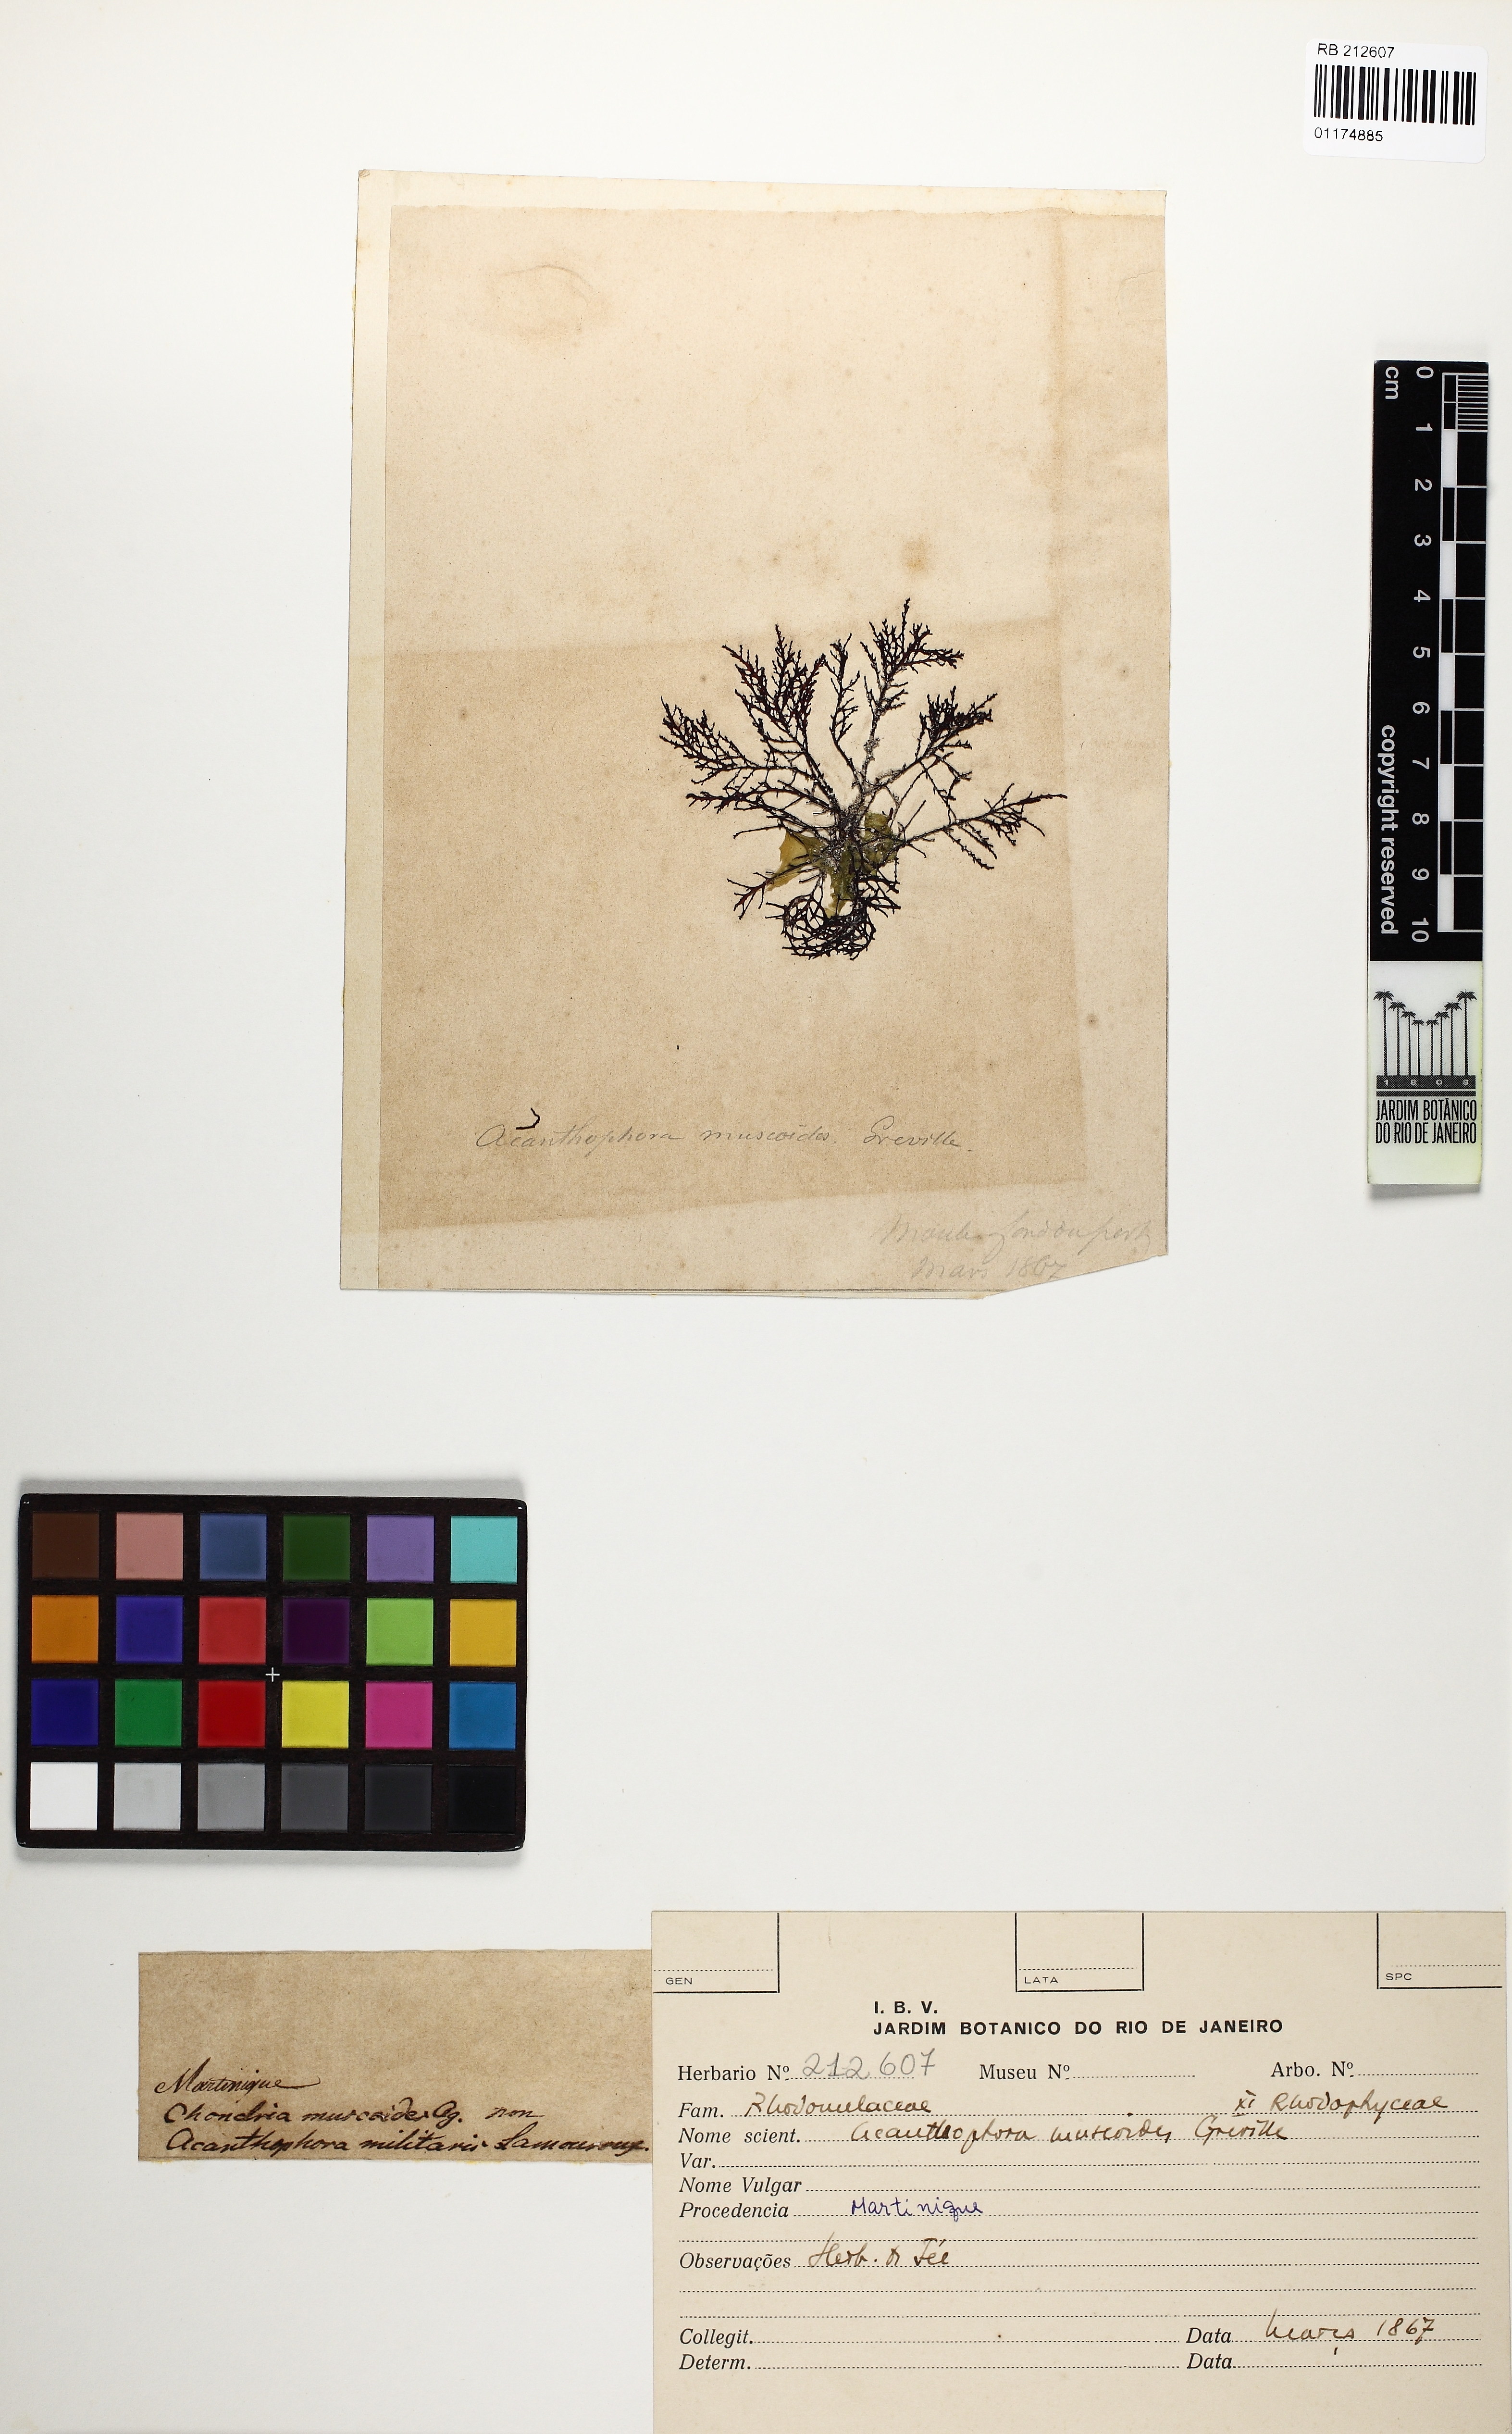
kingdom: Plantae
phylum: Rhodophyta
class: Florideophyceae
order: Ceramiales
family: Rhodomelaceae
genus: Acanthophora
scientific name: Acanthophora muscoides
